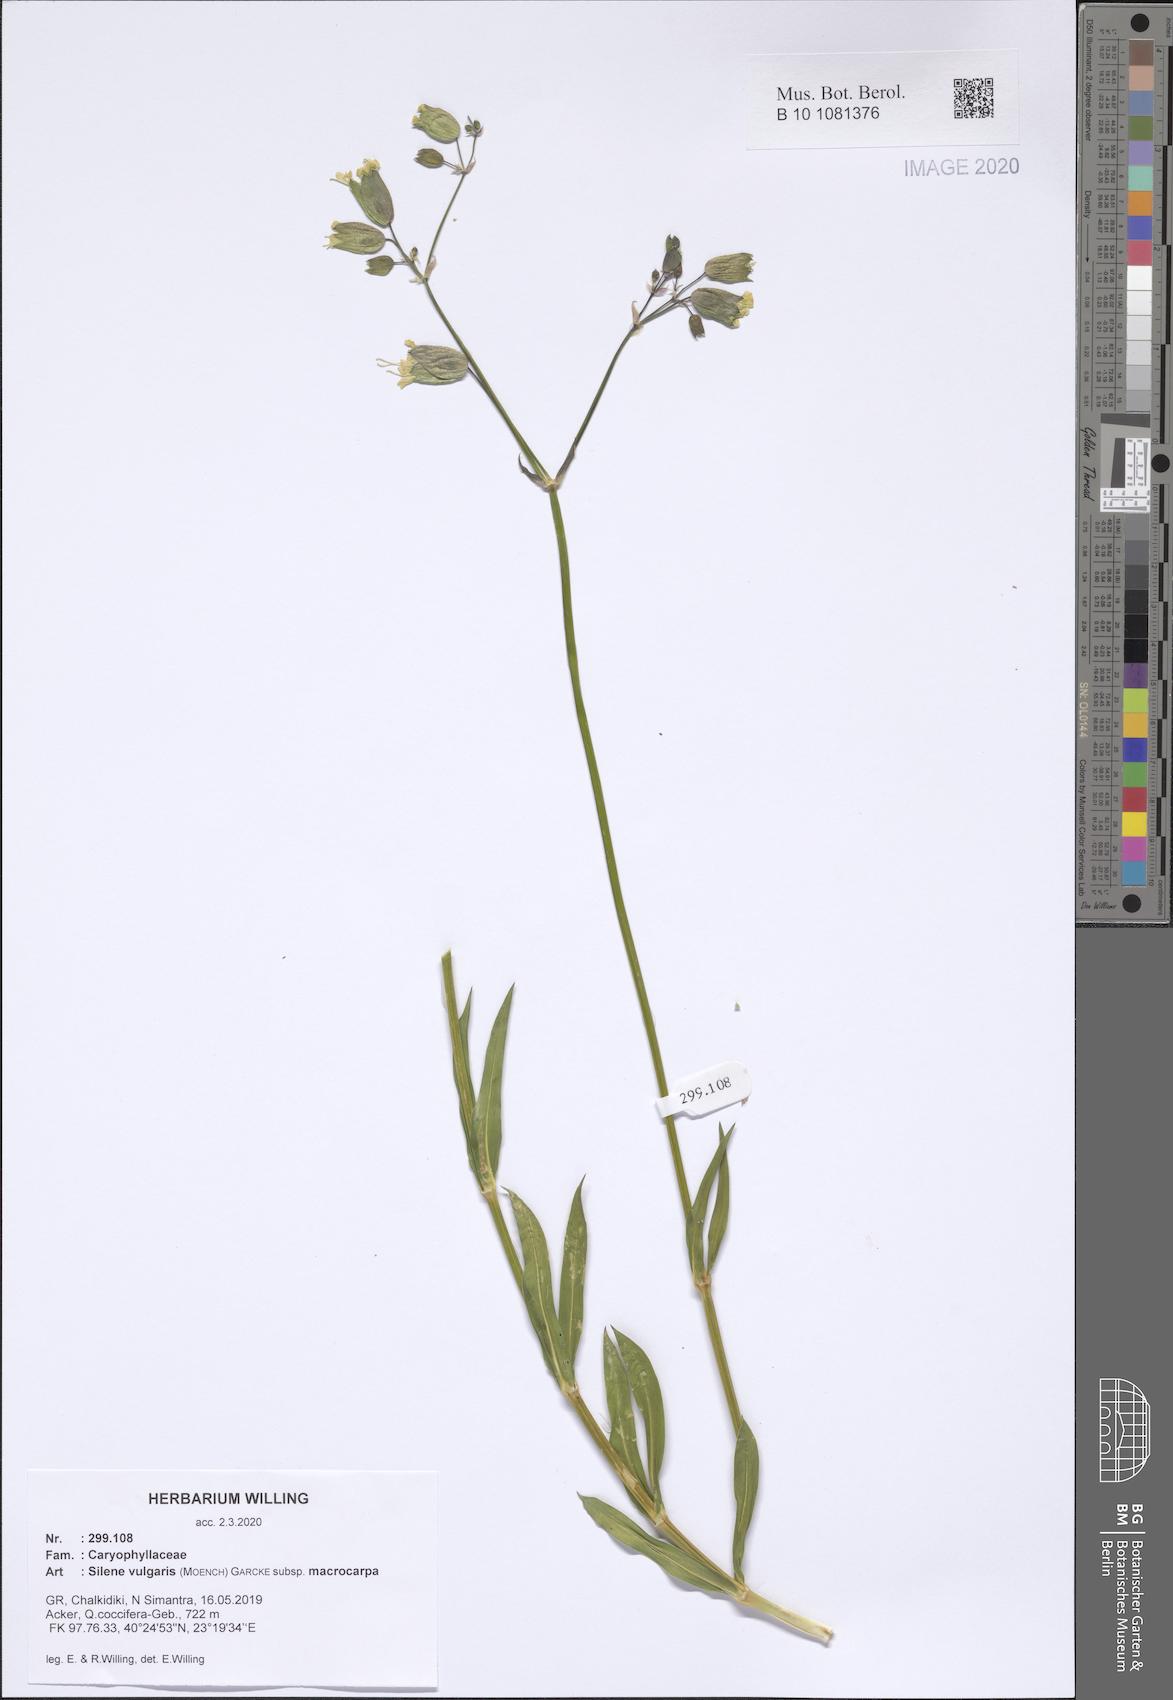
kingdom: Plantae
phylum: Tracheophyta
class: Magnoliopsida
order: Caryophyllales
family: Caryophyllaceae
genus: Silene
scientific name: Silene vulgaris
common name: Bladder campion
